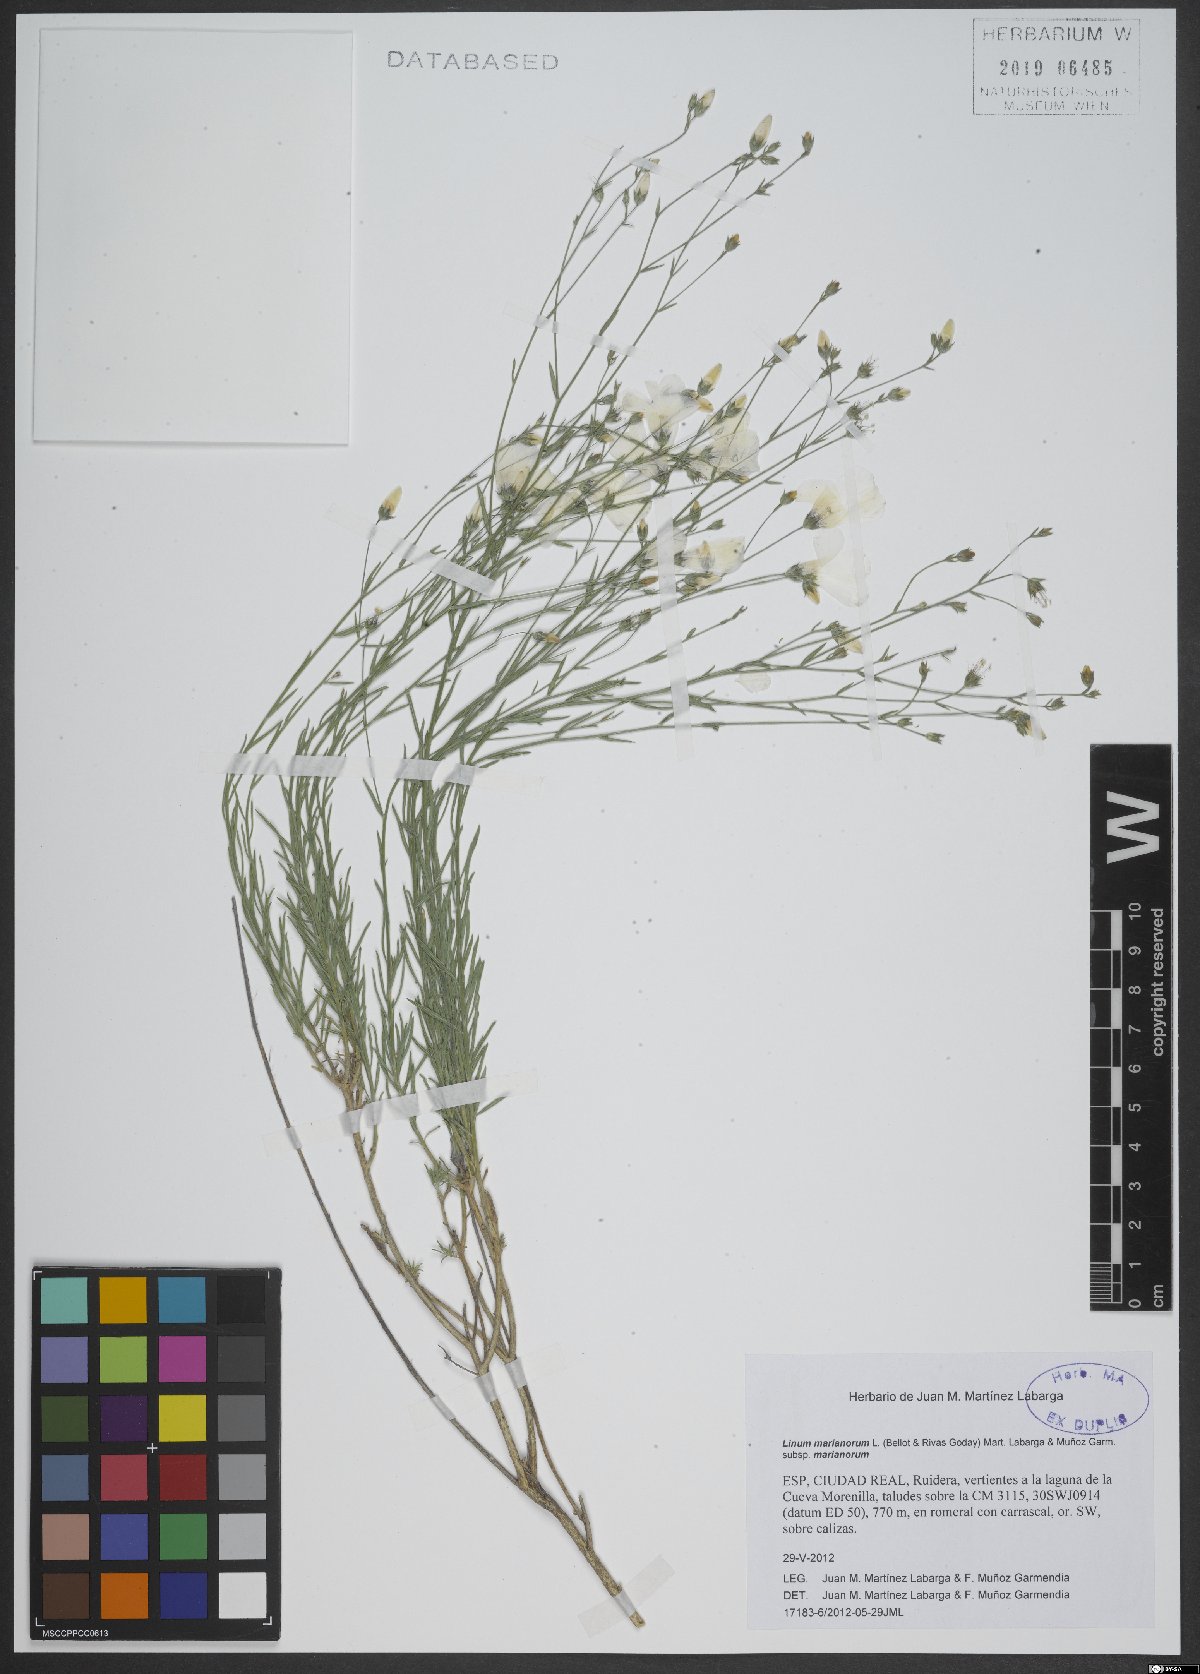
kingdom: Plantae
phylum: Tracheophyta
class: Magnoliopsida
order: Malpighiales
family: Linaceae
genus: Linum
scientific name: Linum marianorum
